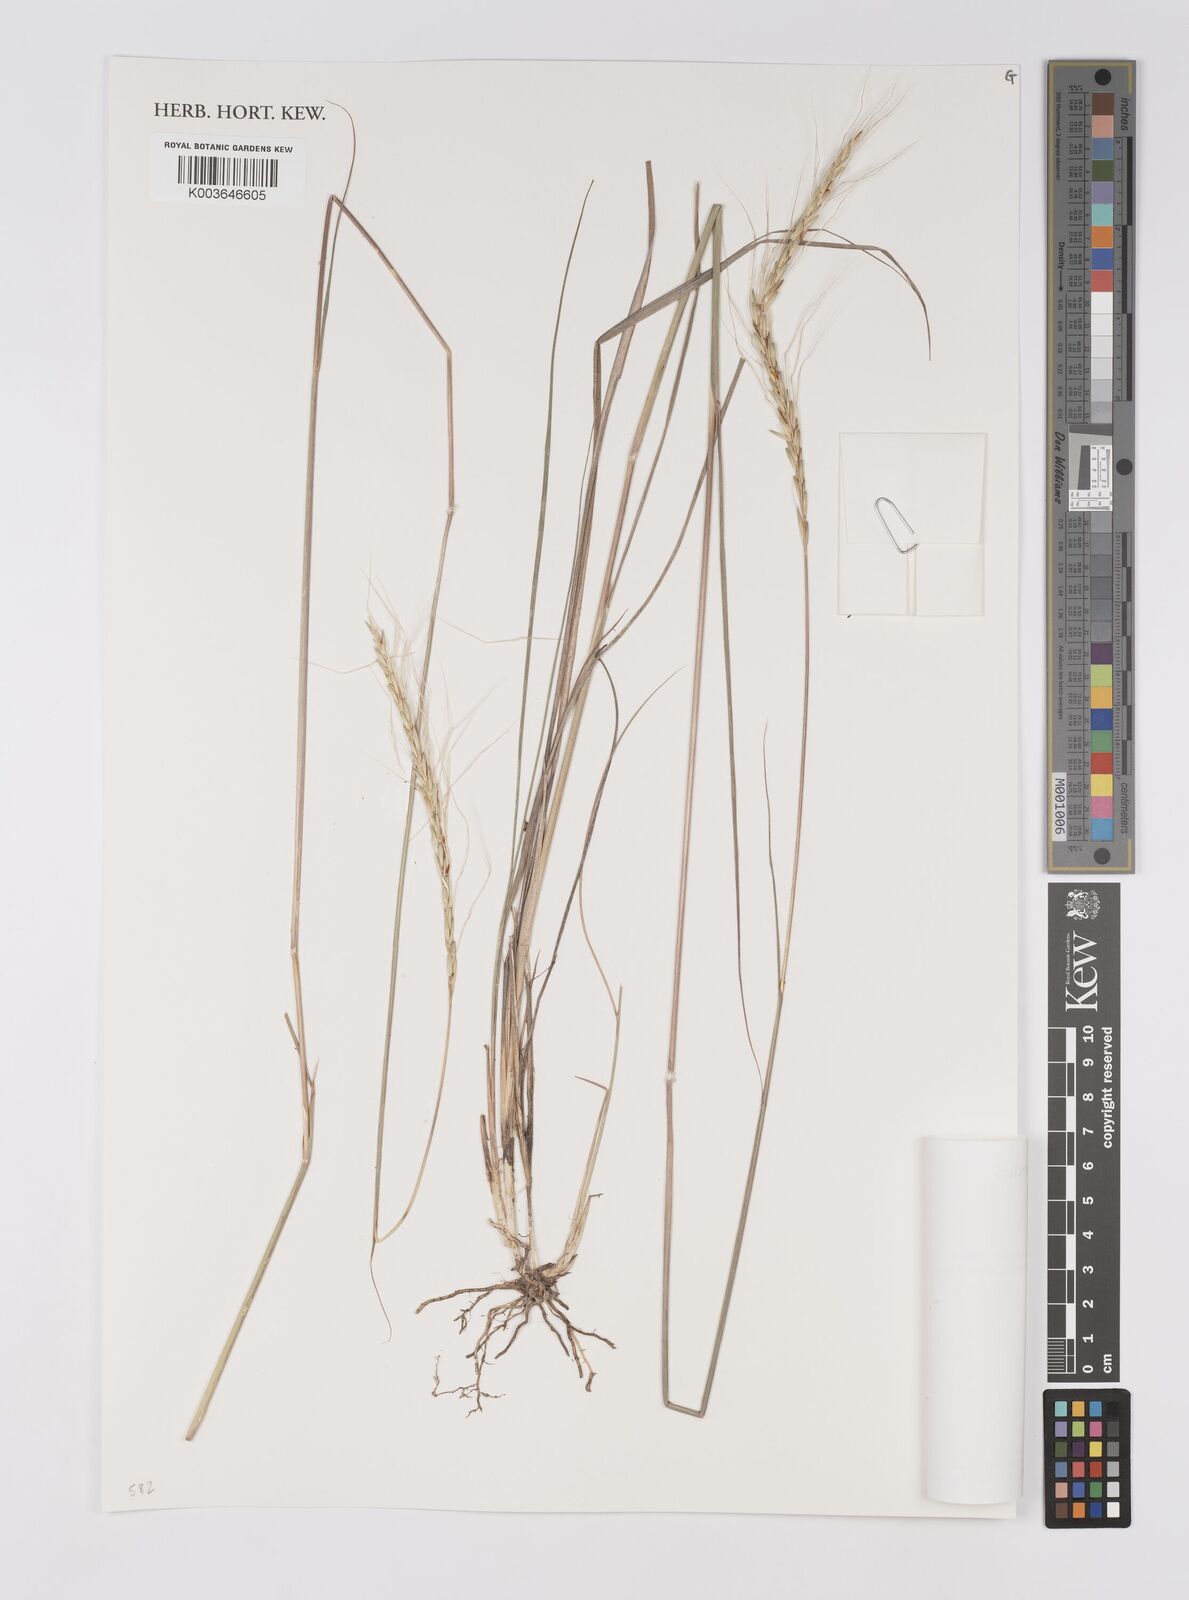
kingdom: Plantae
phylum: Tracheophyta
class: Liliopsida
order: Poales
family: Poaceae
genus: Trachypogon
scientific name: Trachypogon
